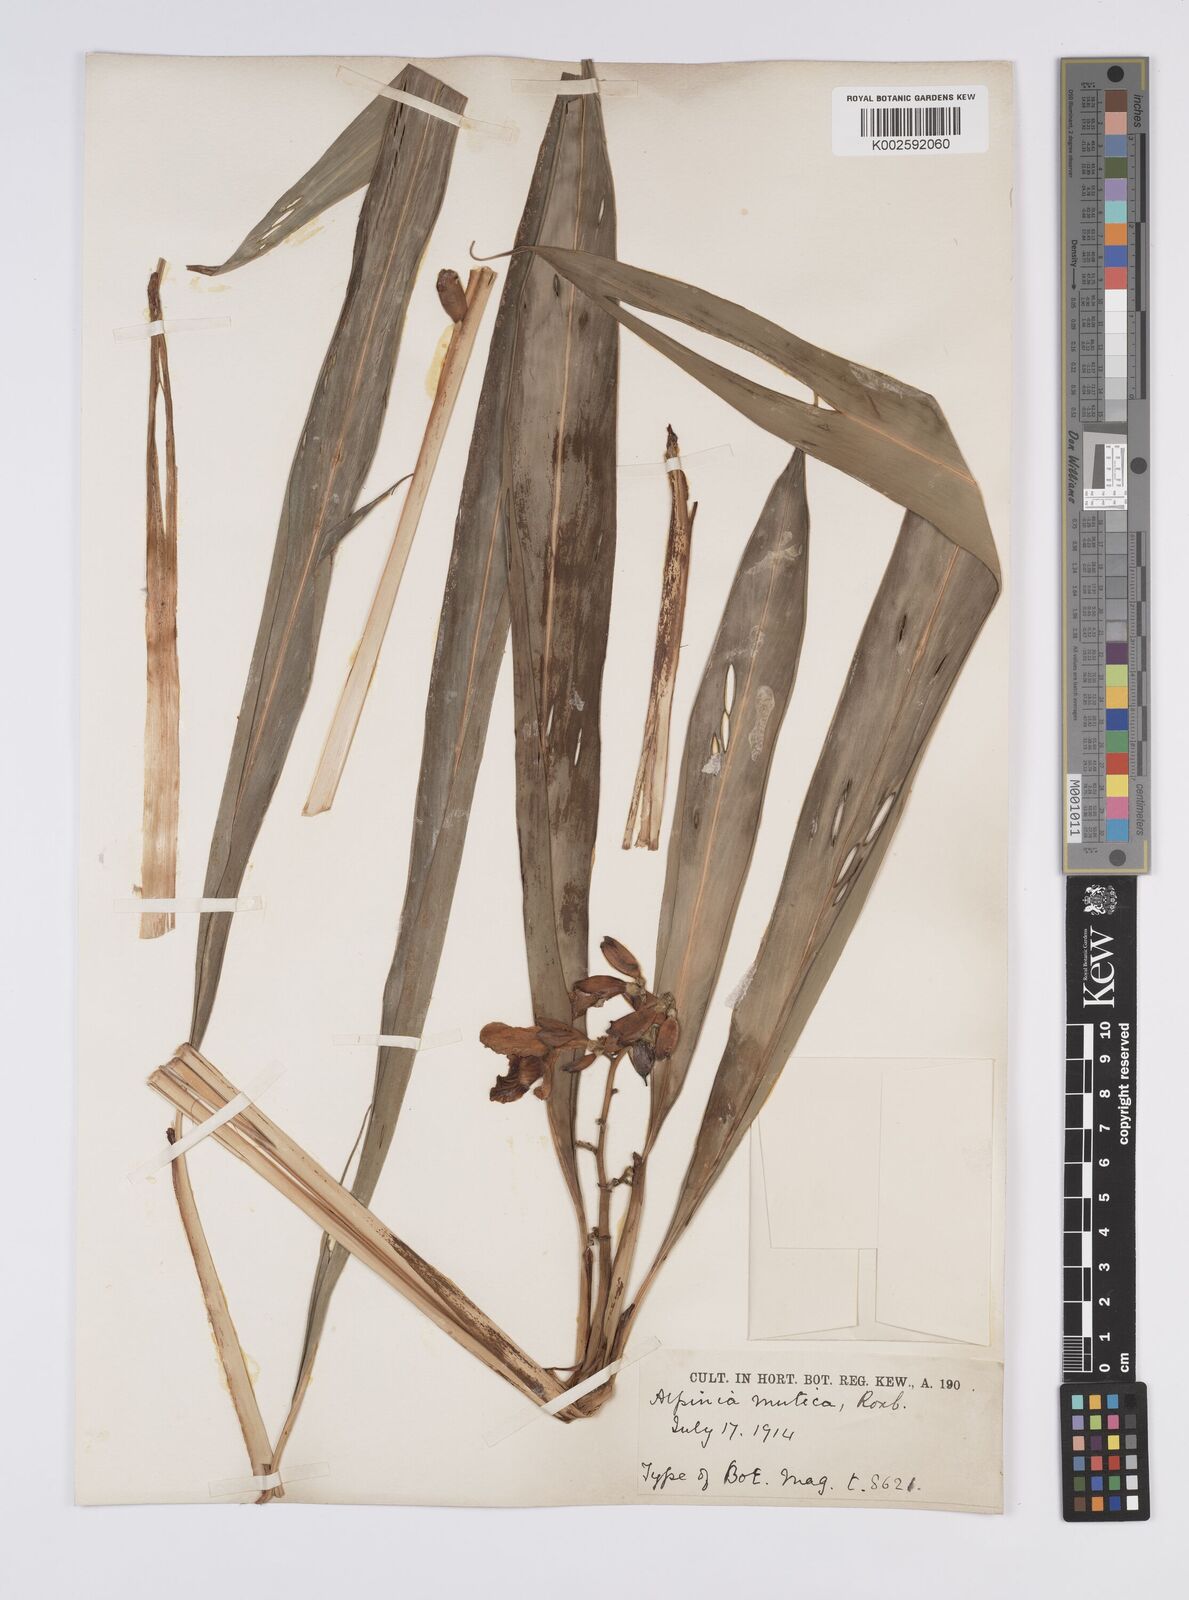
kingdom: Plantae
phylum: Tracheophyta
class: Liliopsida
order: Zingiberales
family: Zingiberaceae
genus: Alpinia
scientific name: Alpinia mutica
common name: Small shell ginger
